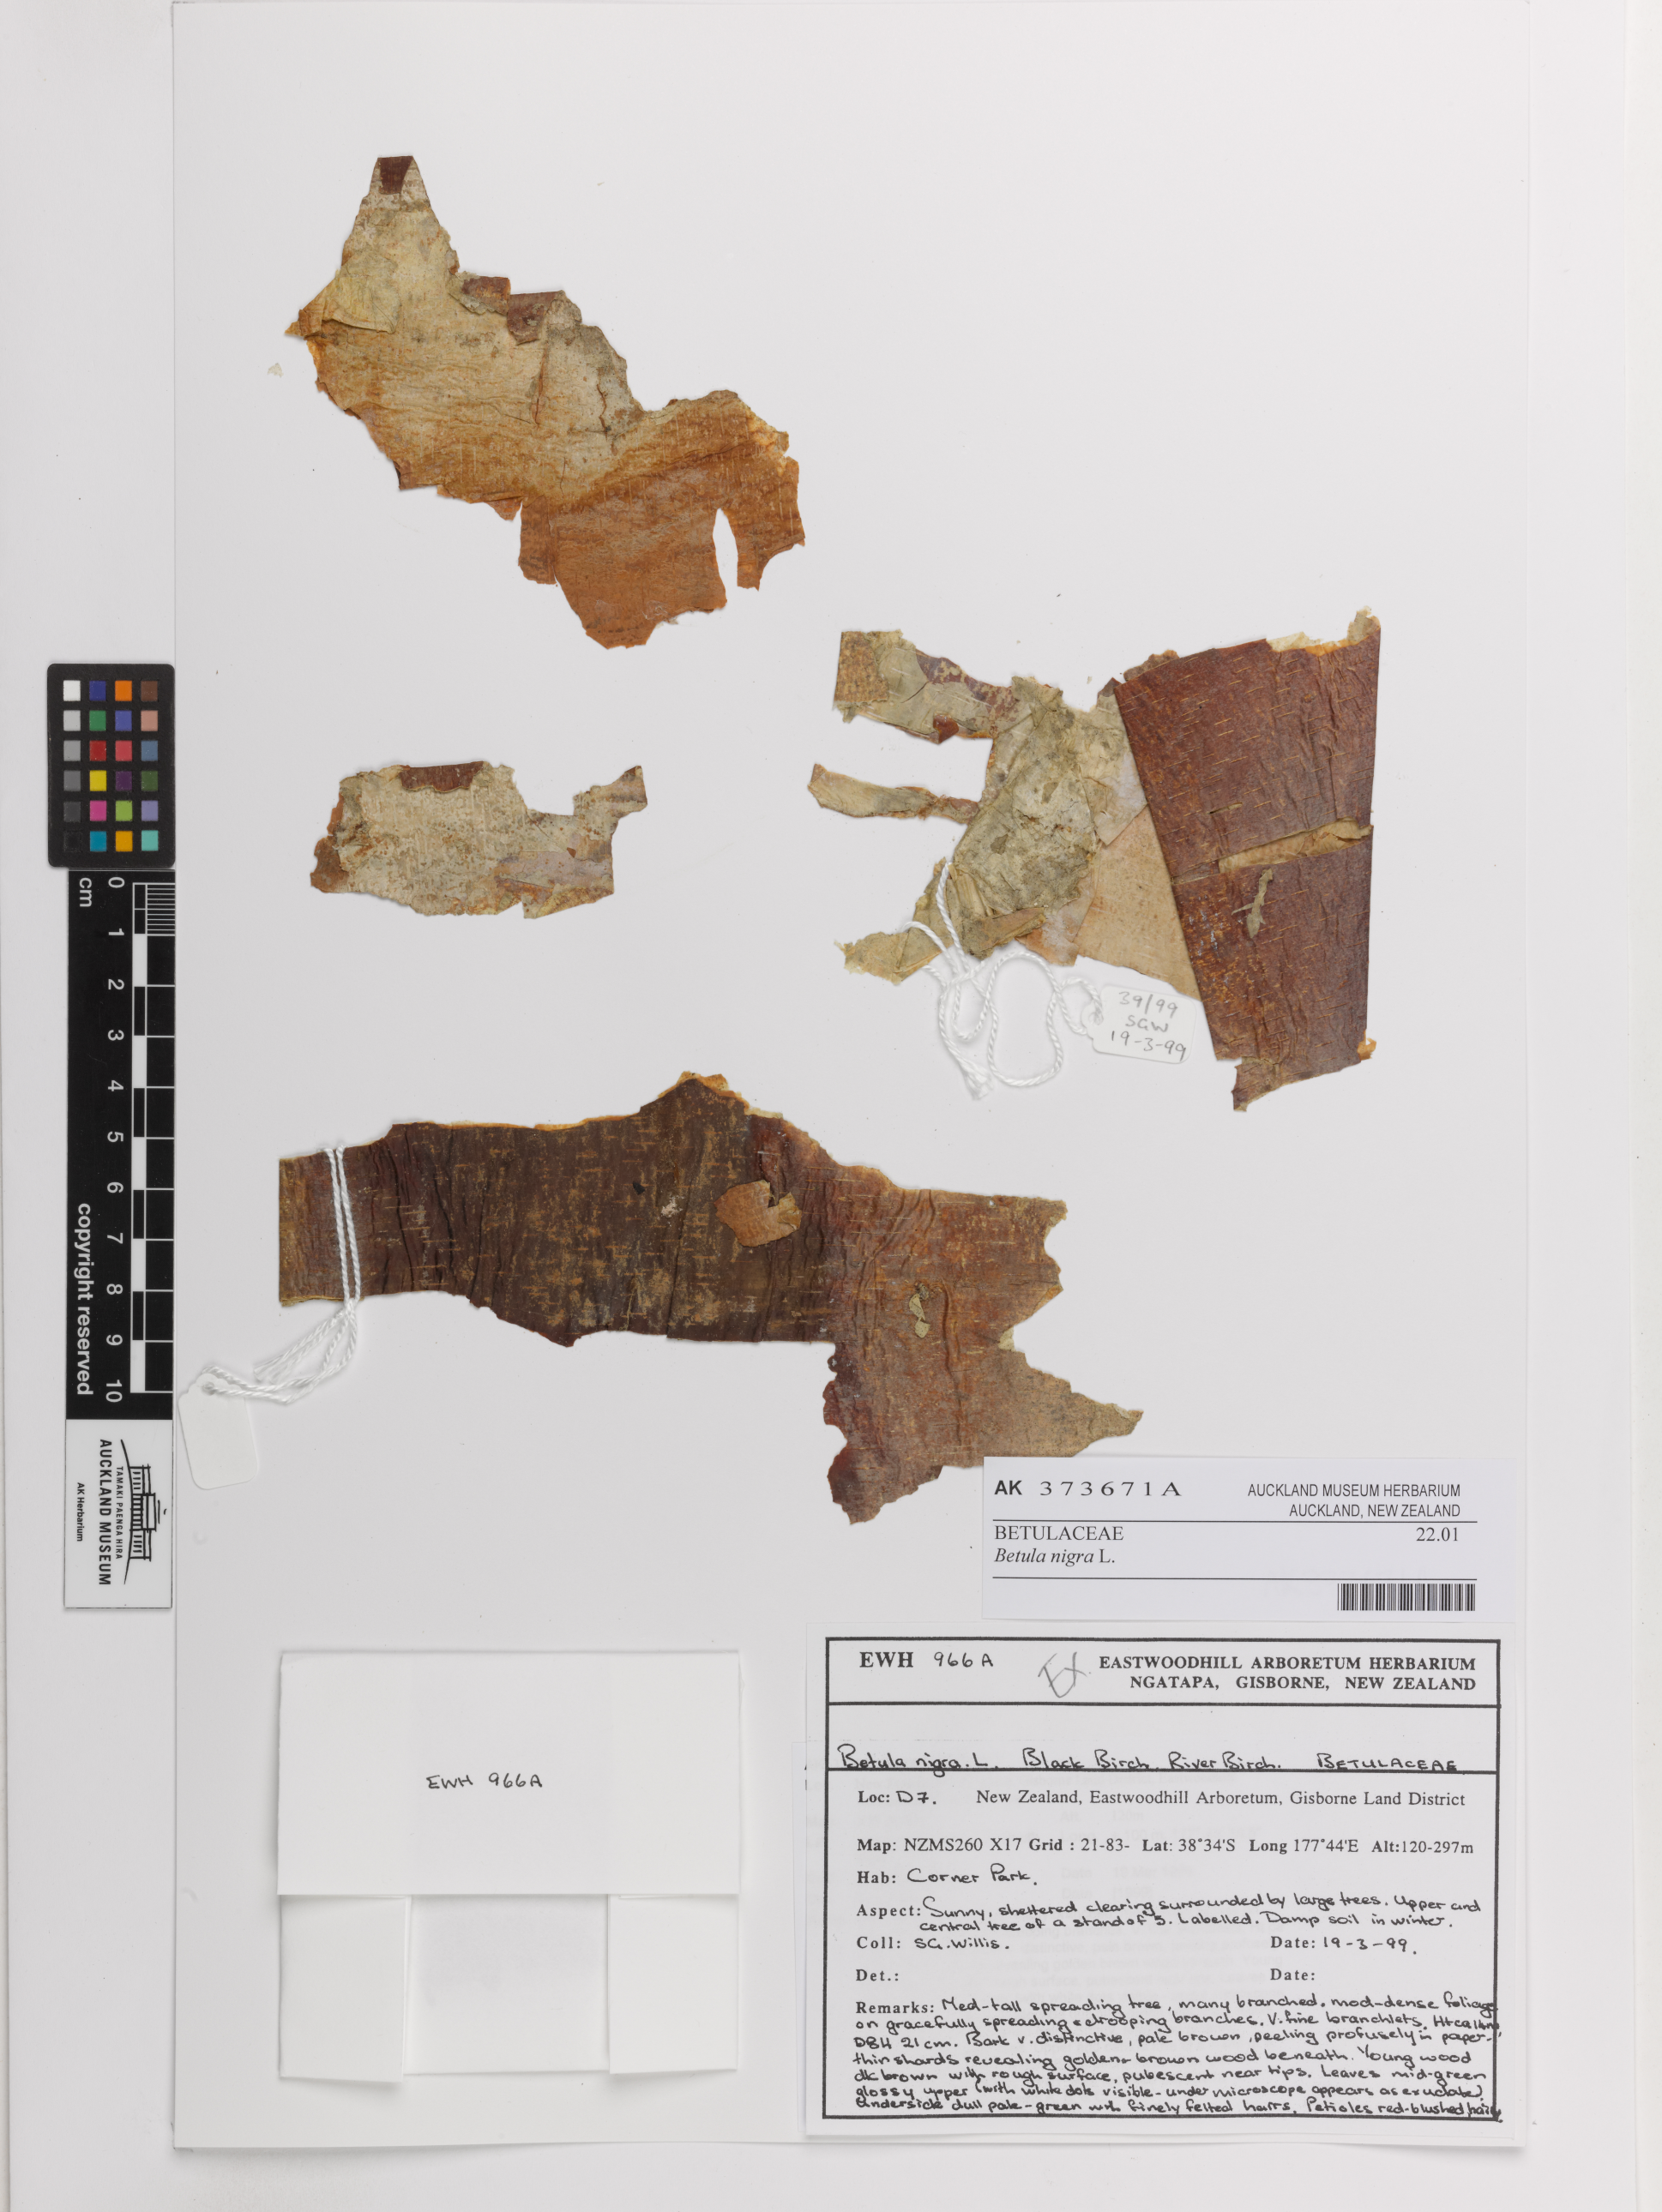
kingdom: Plantae
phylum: Tracheophyta
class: Magnoliopsida
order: Fagales
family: Betulaceae
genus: Betula
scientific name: Betula nigra
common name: Black birch
